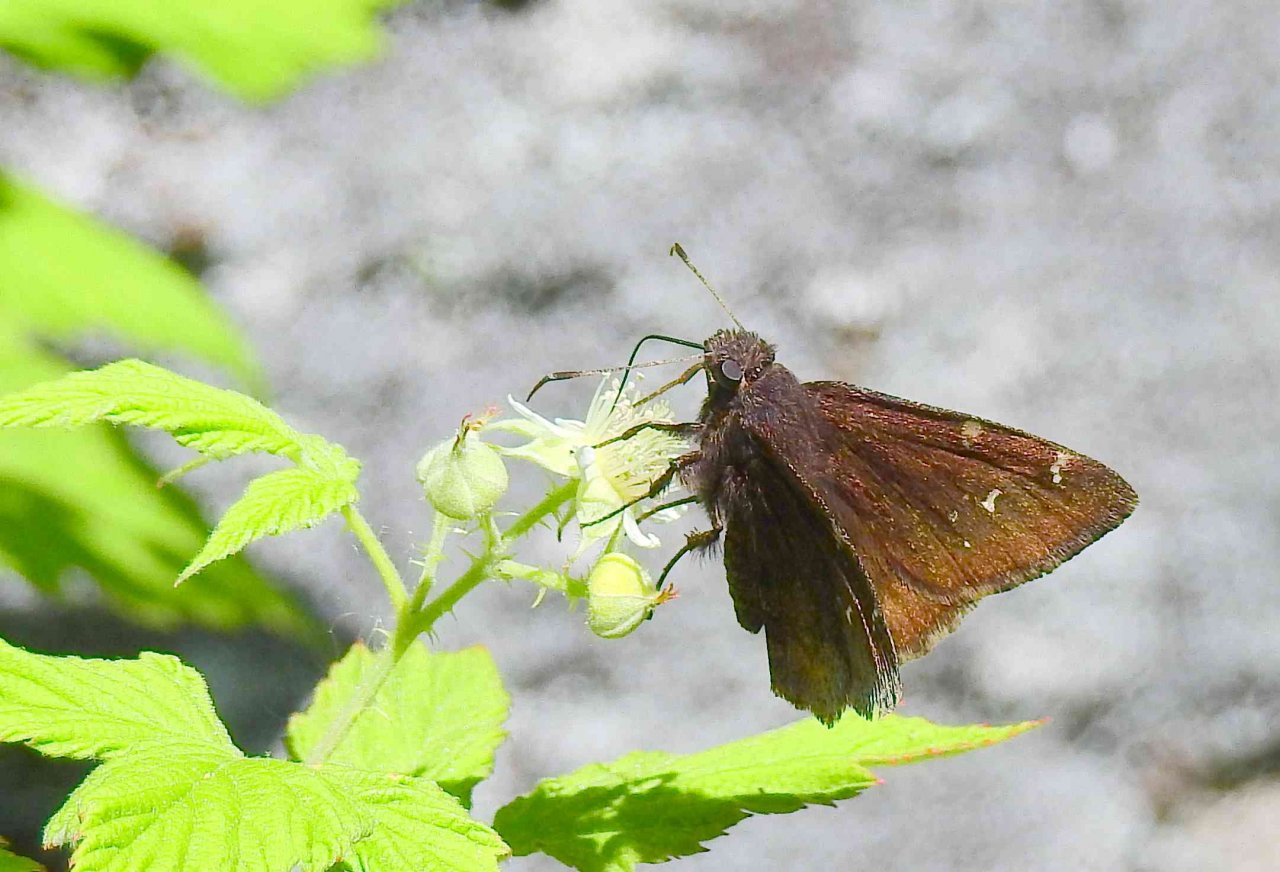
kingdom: Animalia
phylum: Arthropoda
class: Insecta
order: Lepidoptera
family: Hesperiidae
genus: Autochton
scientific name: Autochton
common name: Northern Cloudywing
